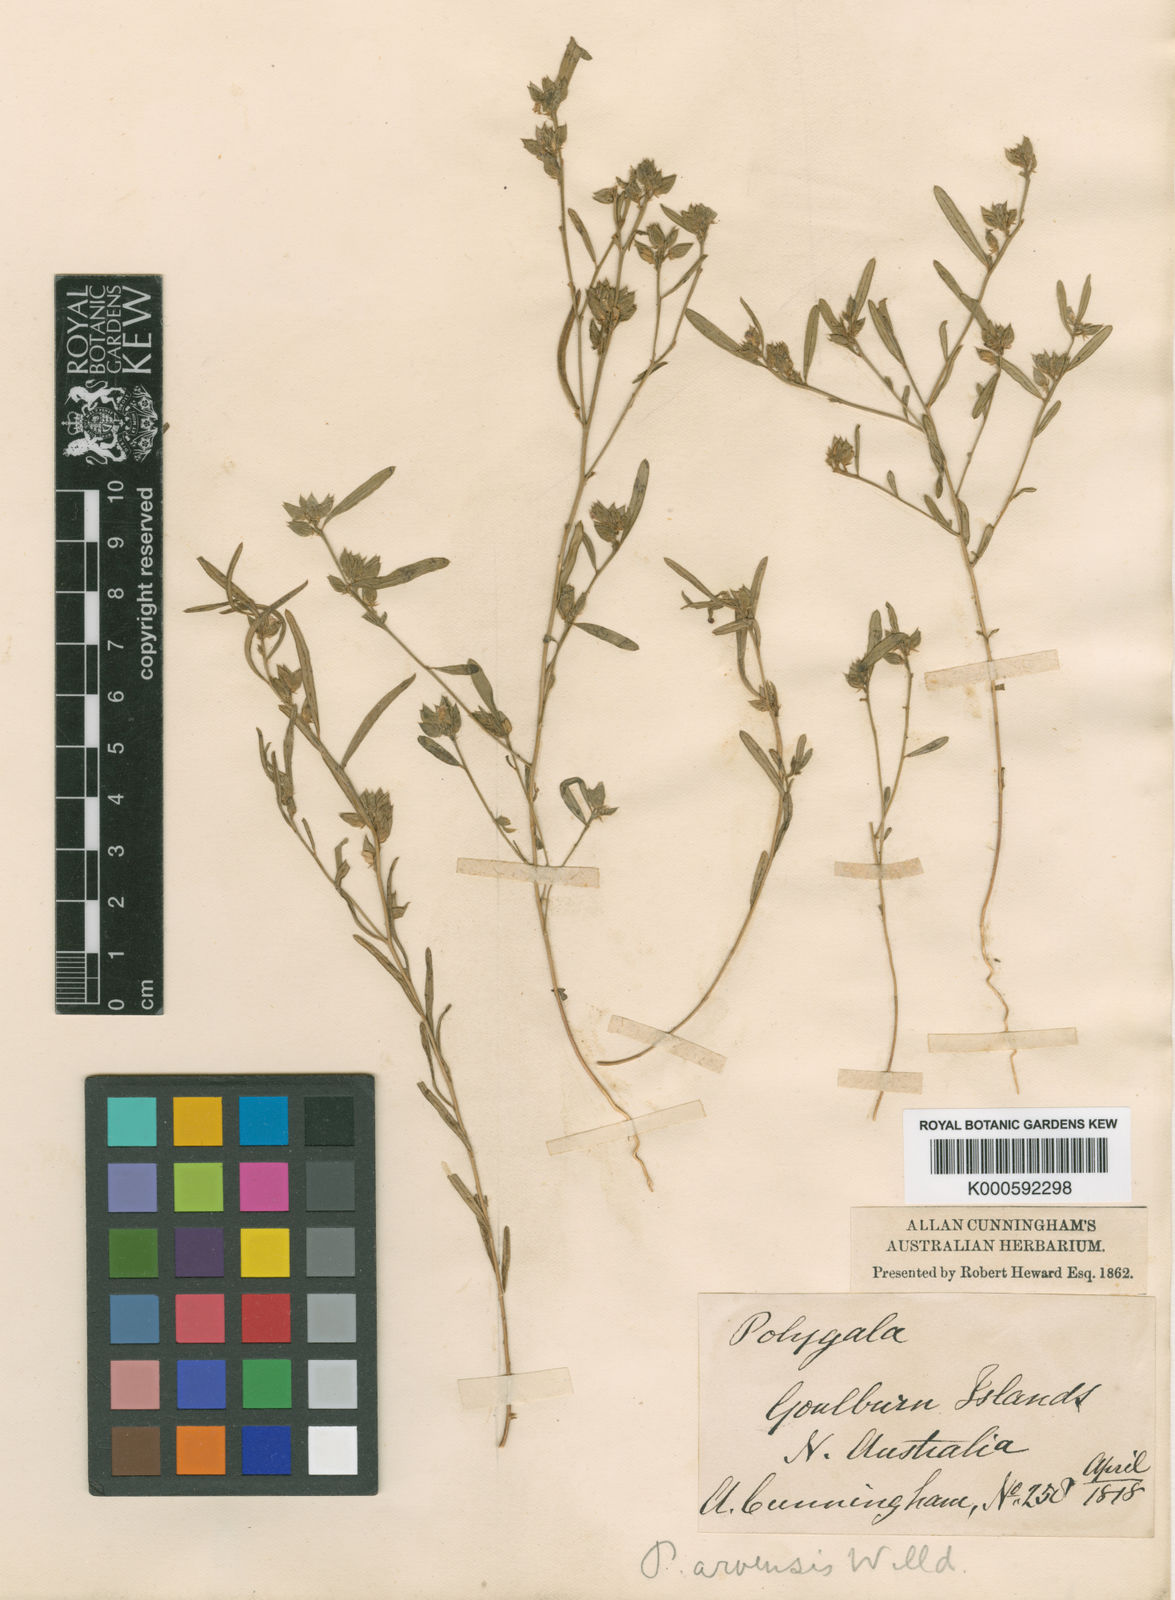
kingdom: Plantae
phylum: Tracheophyta
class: Magnoliopsida
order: Fabales
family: Polygalaceae
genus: Polygala
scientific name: Polygala glomerata
